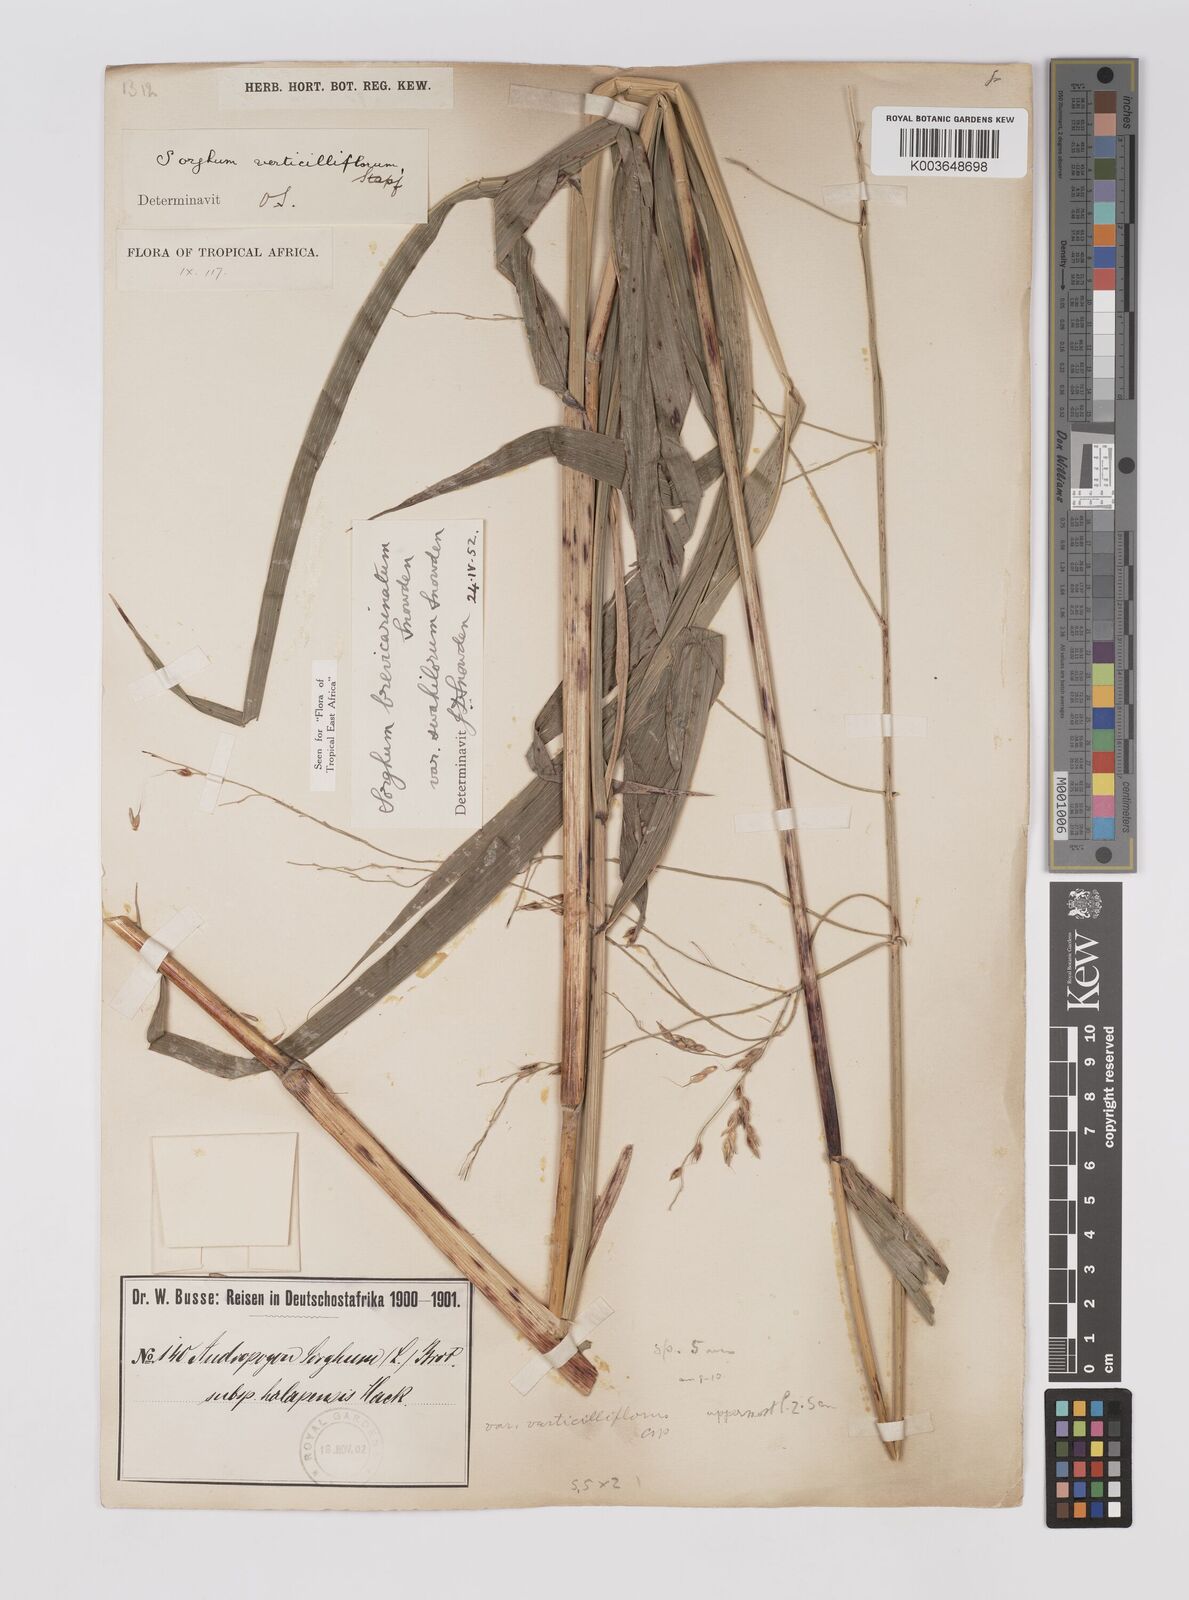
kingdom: Plantae
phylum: Tracheophyta
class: Liliopsida
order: Poales
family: Poaceae
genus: Sorghum
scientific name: Sorghum arundinaceum
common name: Sorghum
